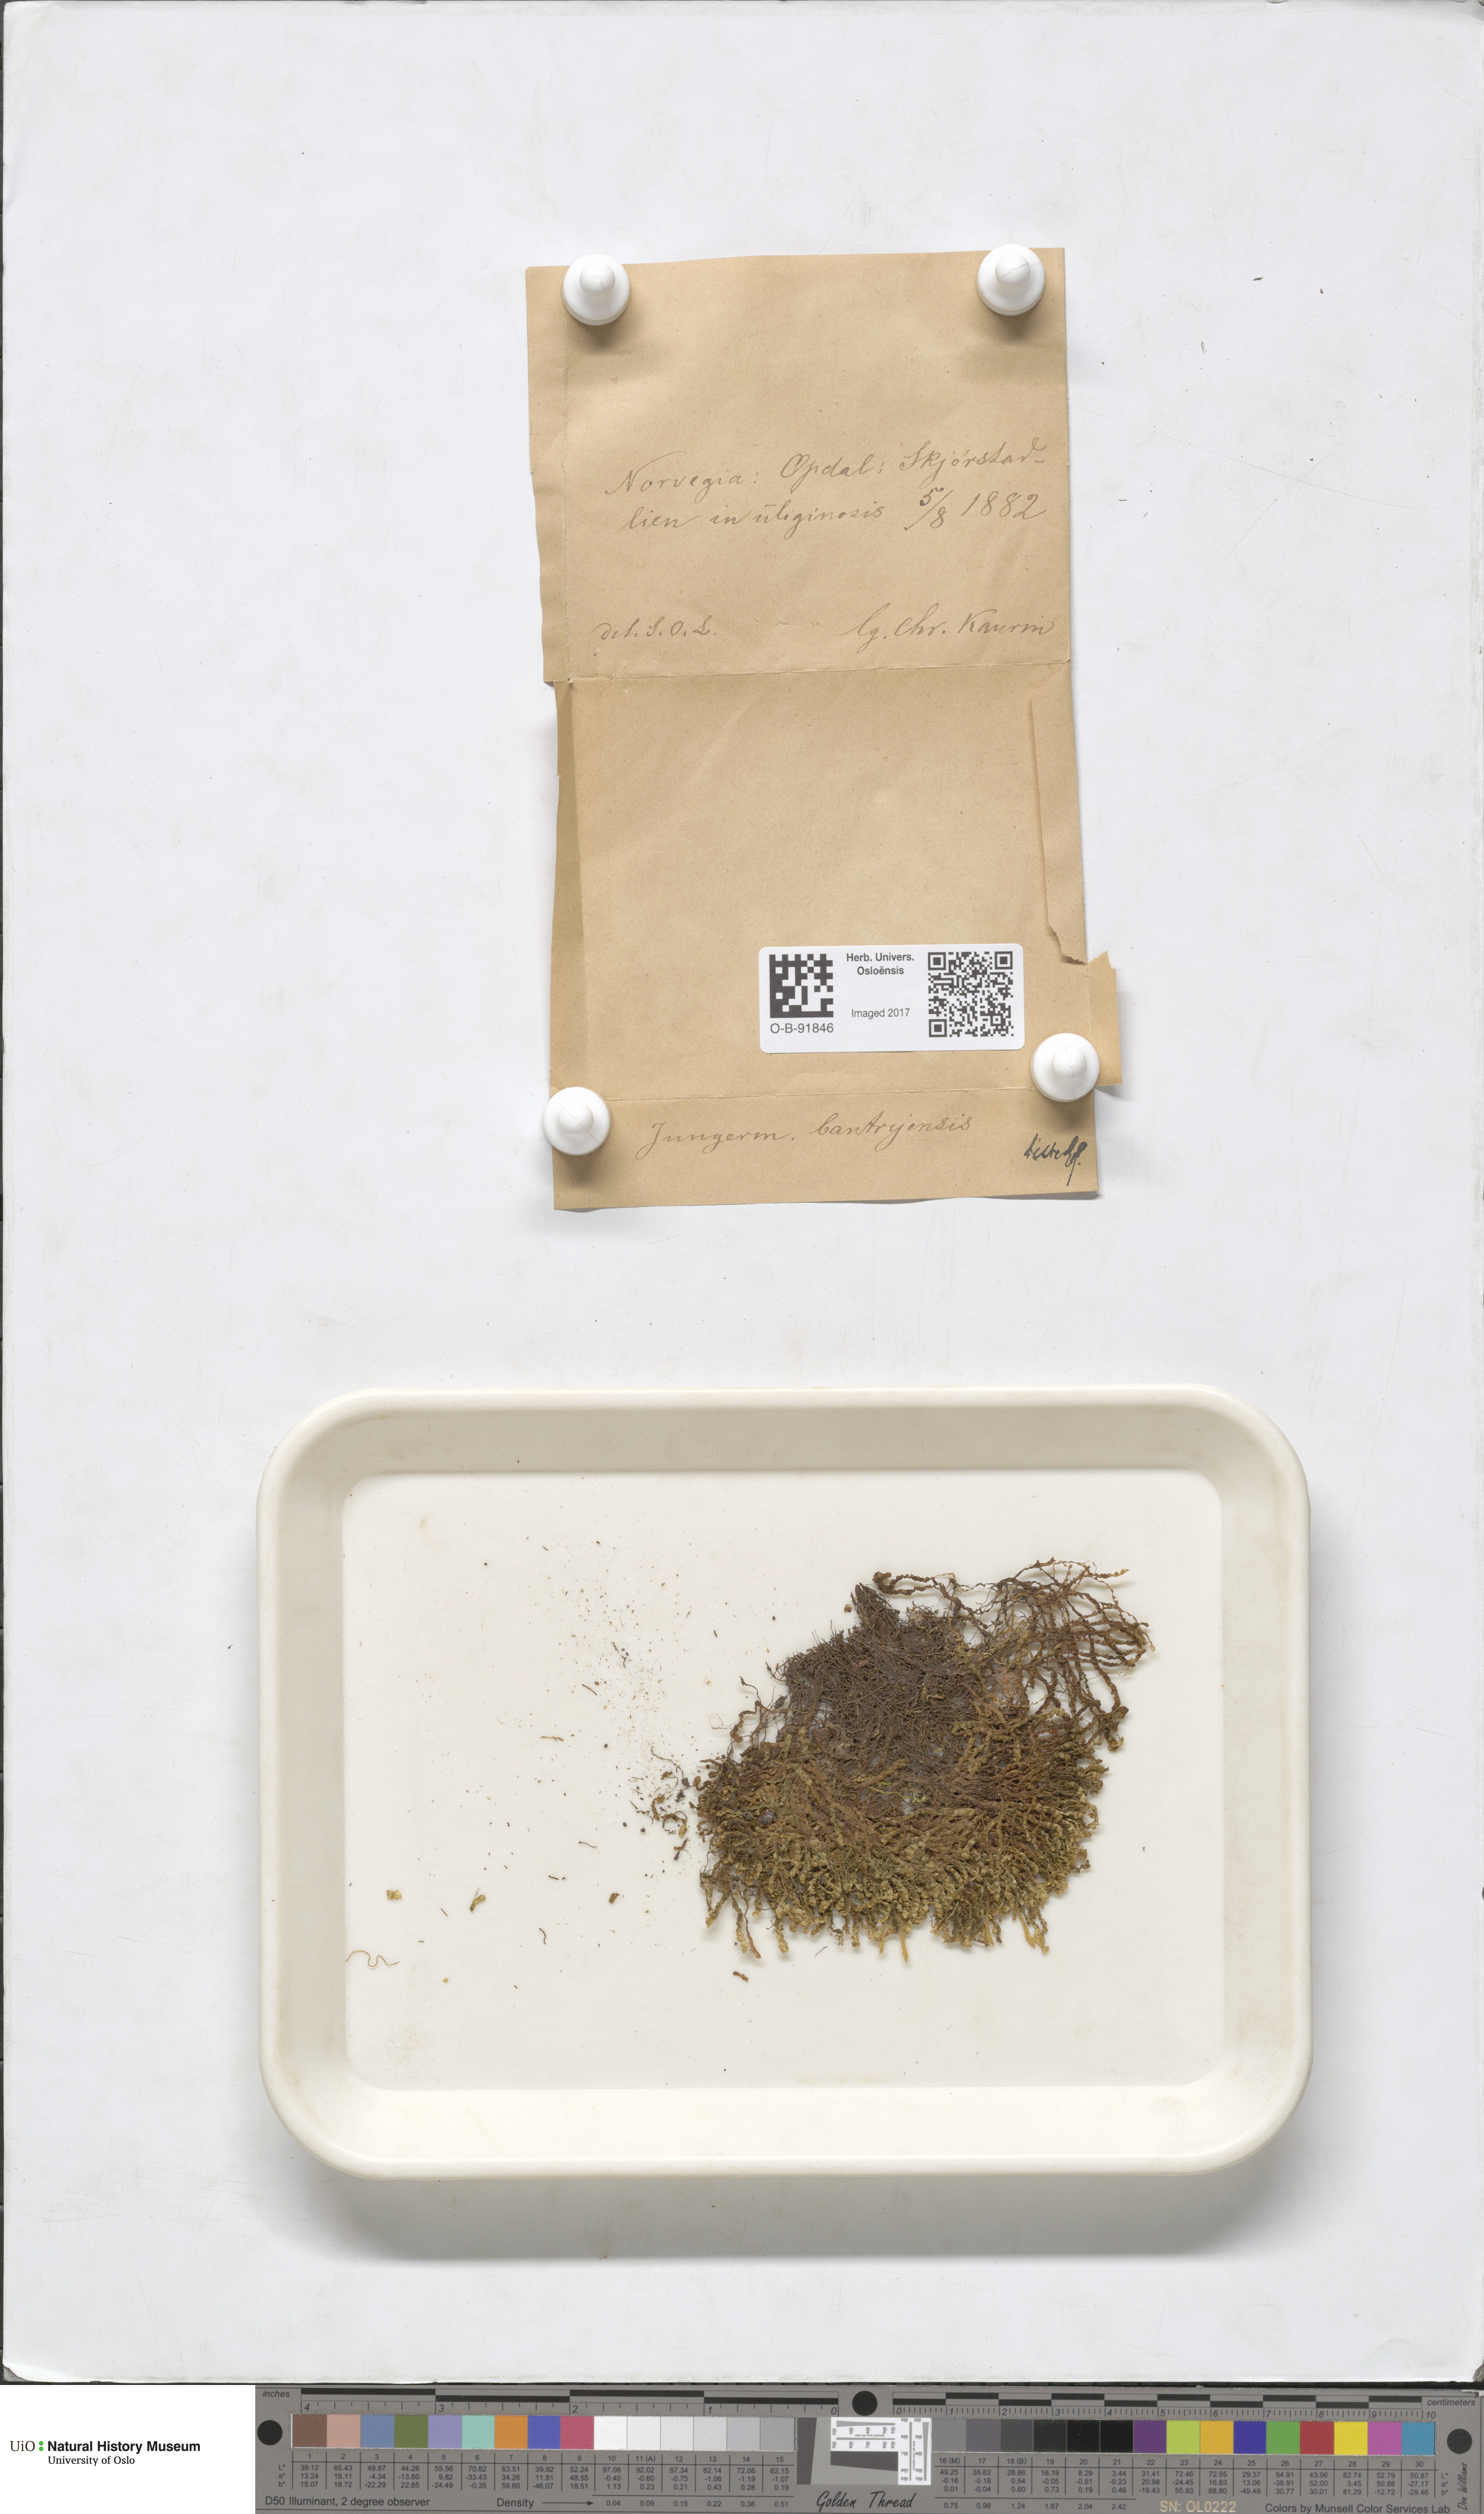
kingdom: Plantae
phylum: Marchantiophyta
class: Jungermanniopsida
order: Jungermanniales
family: Jungermanniaceae
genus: Mesoptychia
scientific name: Mesoptychia bantriensis
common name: Bantry notchwort
